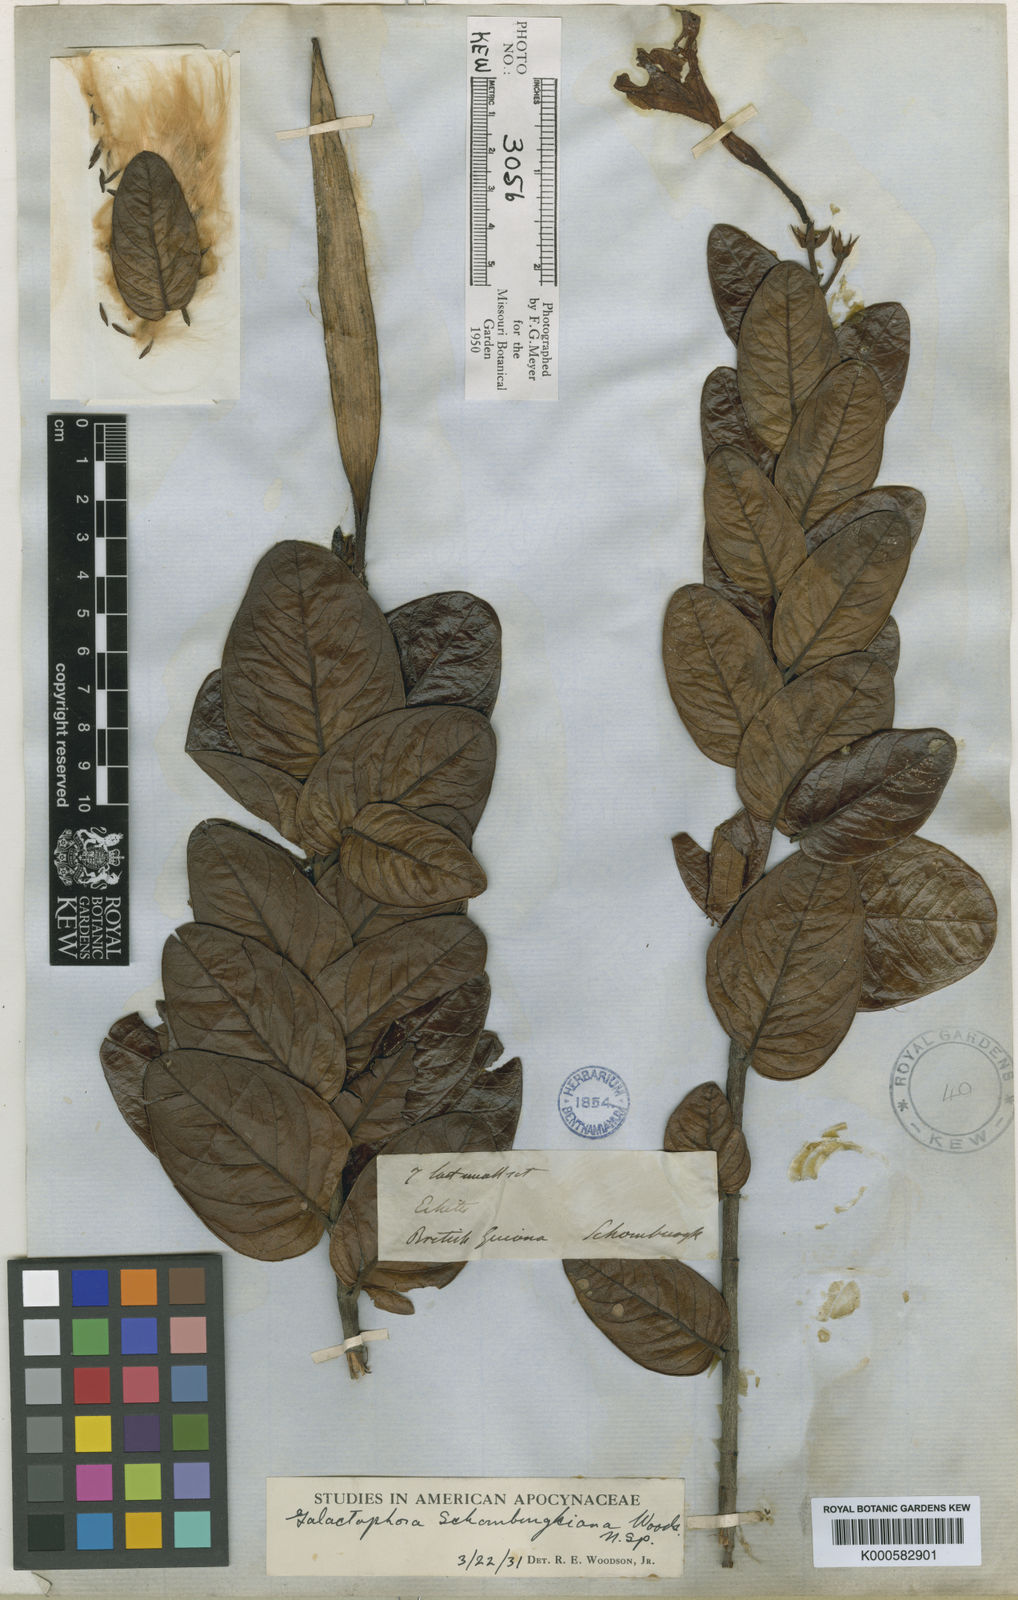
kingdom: Plantae
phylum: Tracheophyta
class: Magnoliopsida
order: Gentianales
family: Apocynaceae
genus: Galactophora
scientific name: Galactophora schomburgkiana
